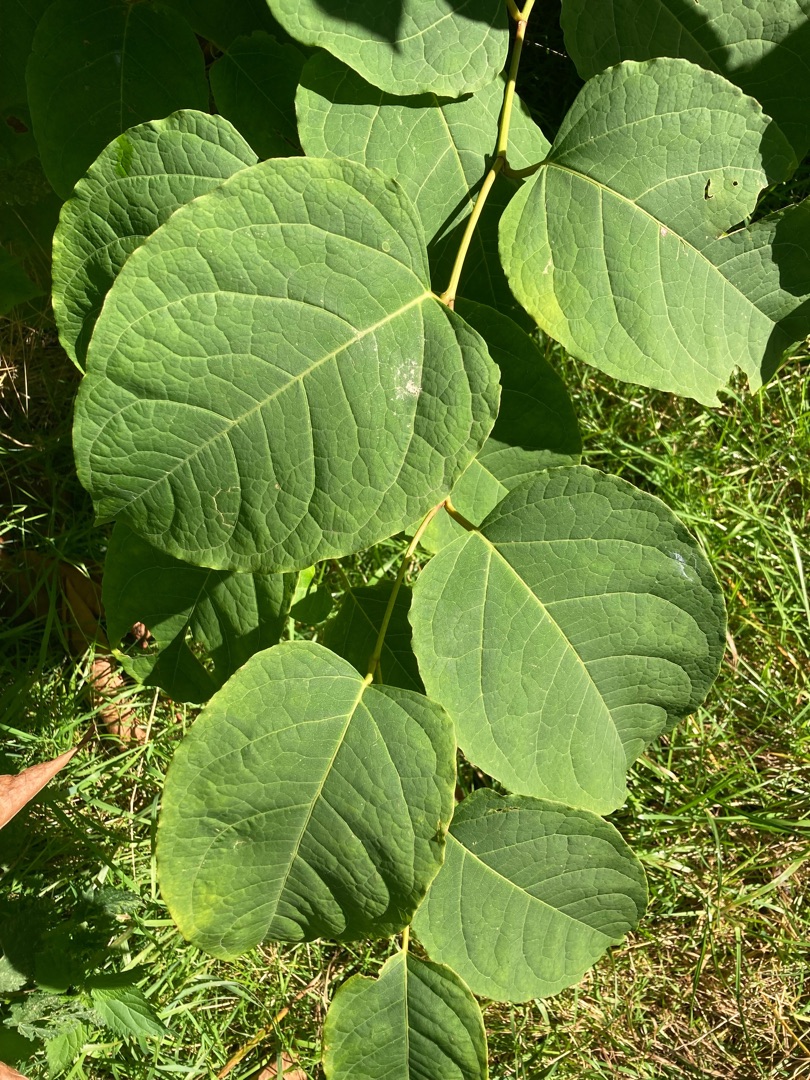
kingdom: Plantae
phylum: Tracheophyta
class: Magnoliopsida
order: Caryophyllales
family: Polygonaceae
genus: Reynoutria
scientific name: Reynoutria bohemica
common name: Hybrid-pileurt
